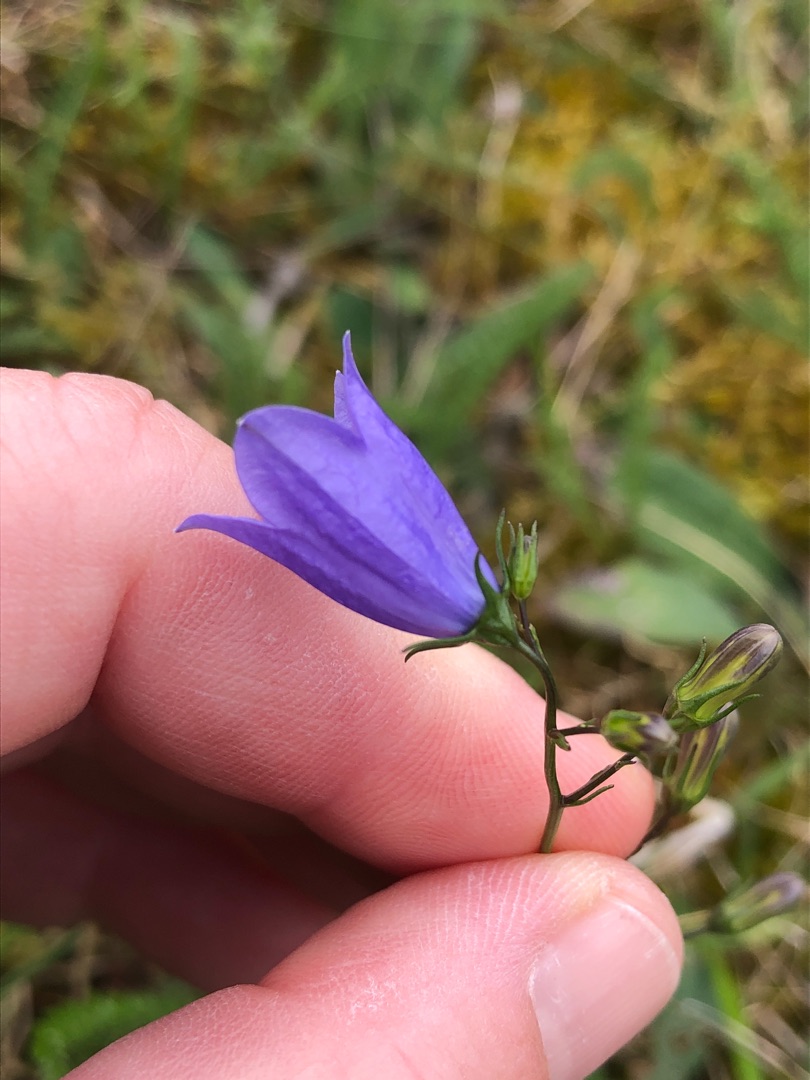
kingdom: Plantae
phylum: Tracheophyta
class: Magnoliopsida
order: Asterales
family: Campanulaceae
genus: Campanula
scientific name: Campanula rotundifolia
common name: Liden klokke
